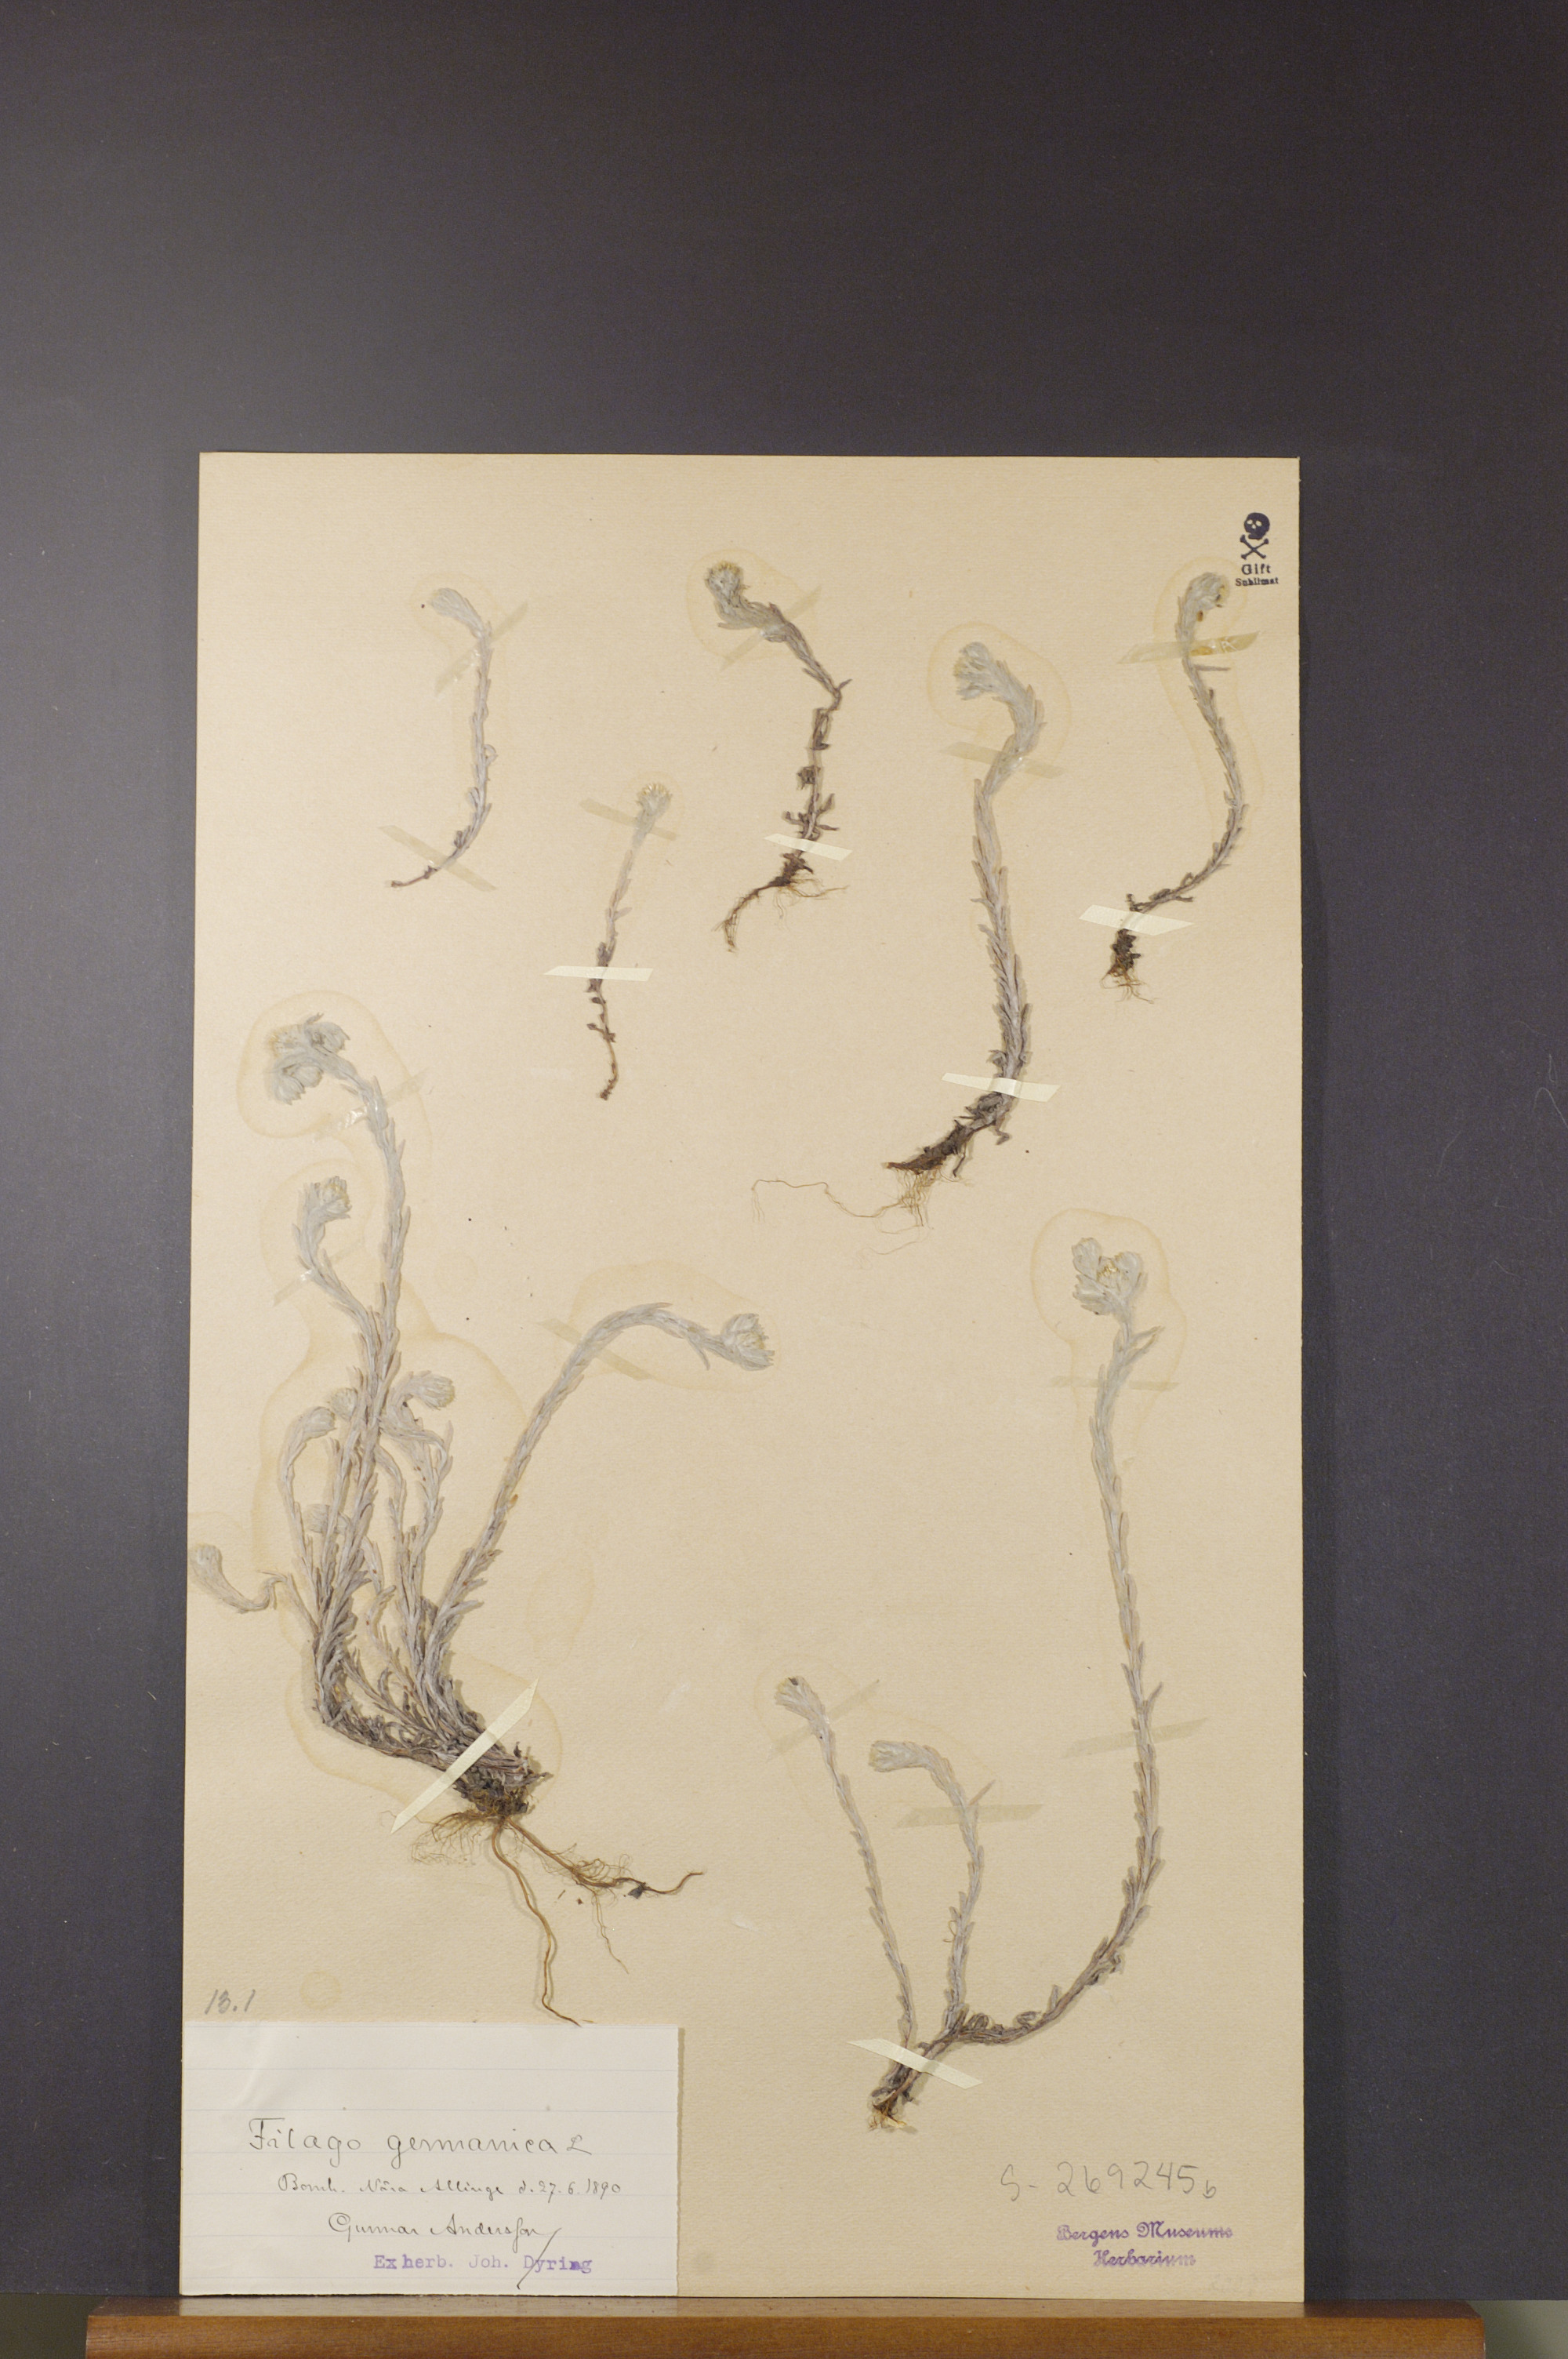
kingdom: Plantae
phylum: Tracheophyta
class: Magnoliopsida
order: Asterales
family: Asteraceae
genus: Filago
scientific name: Filago germanica
